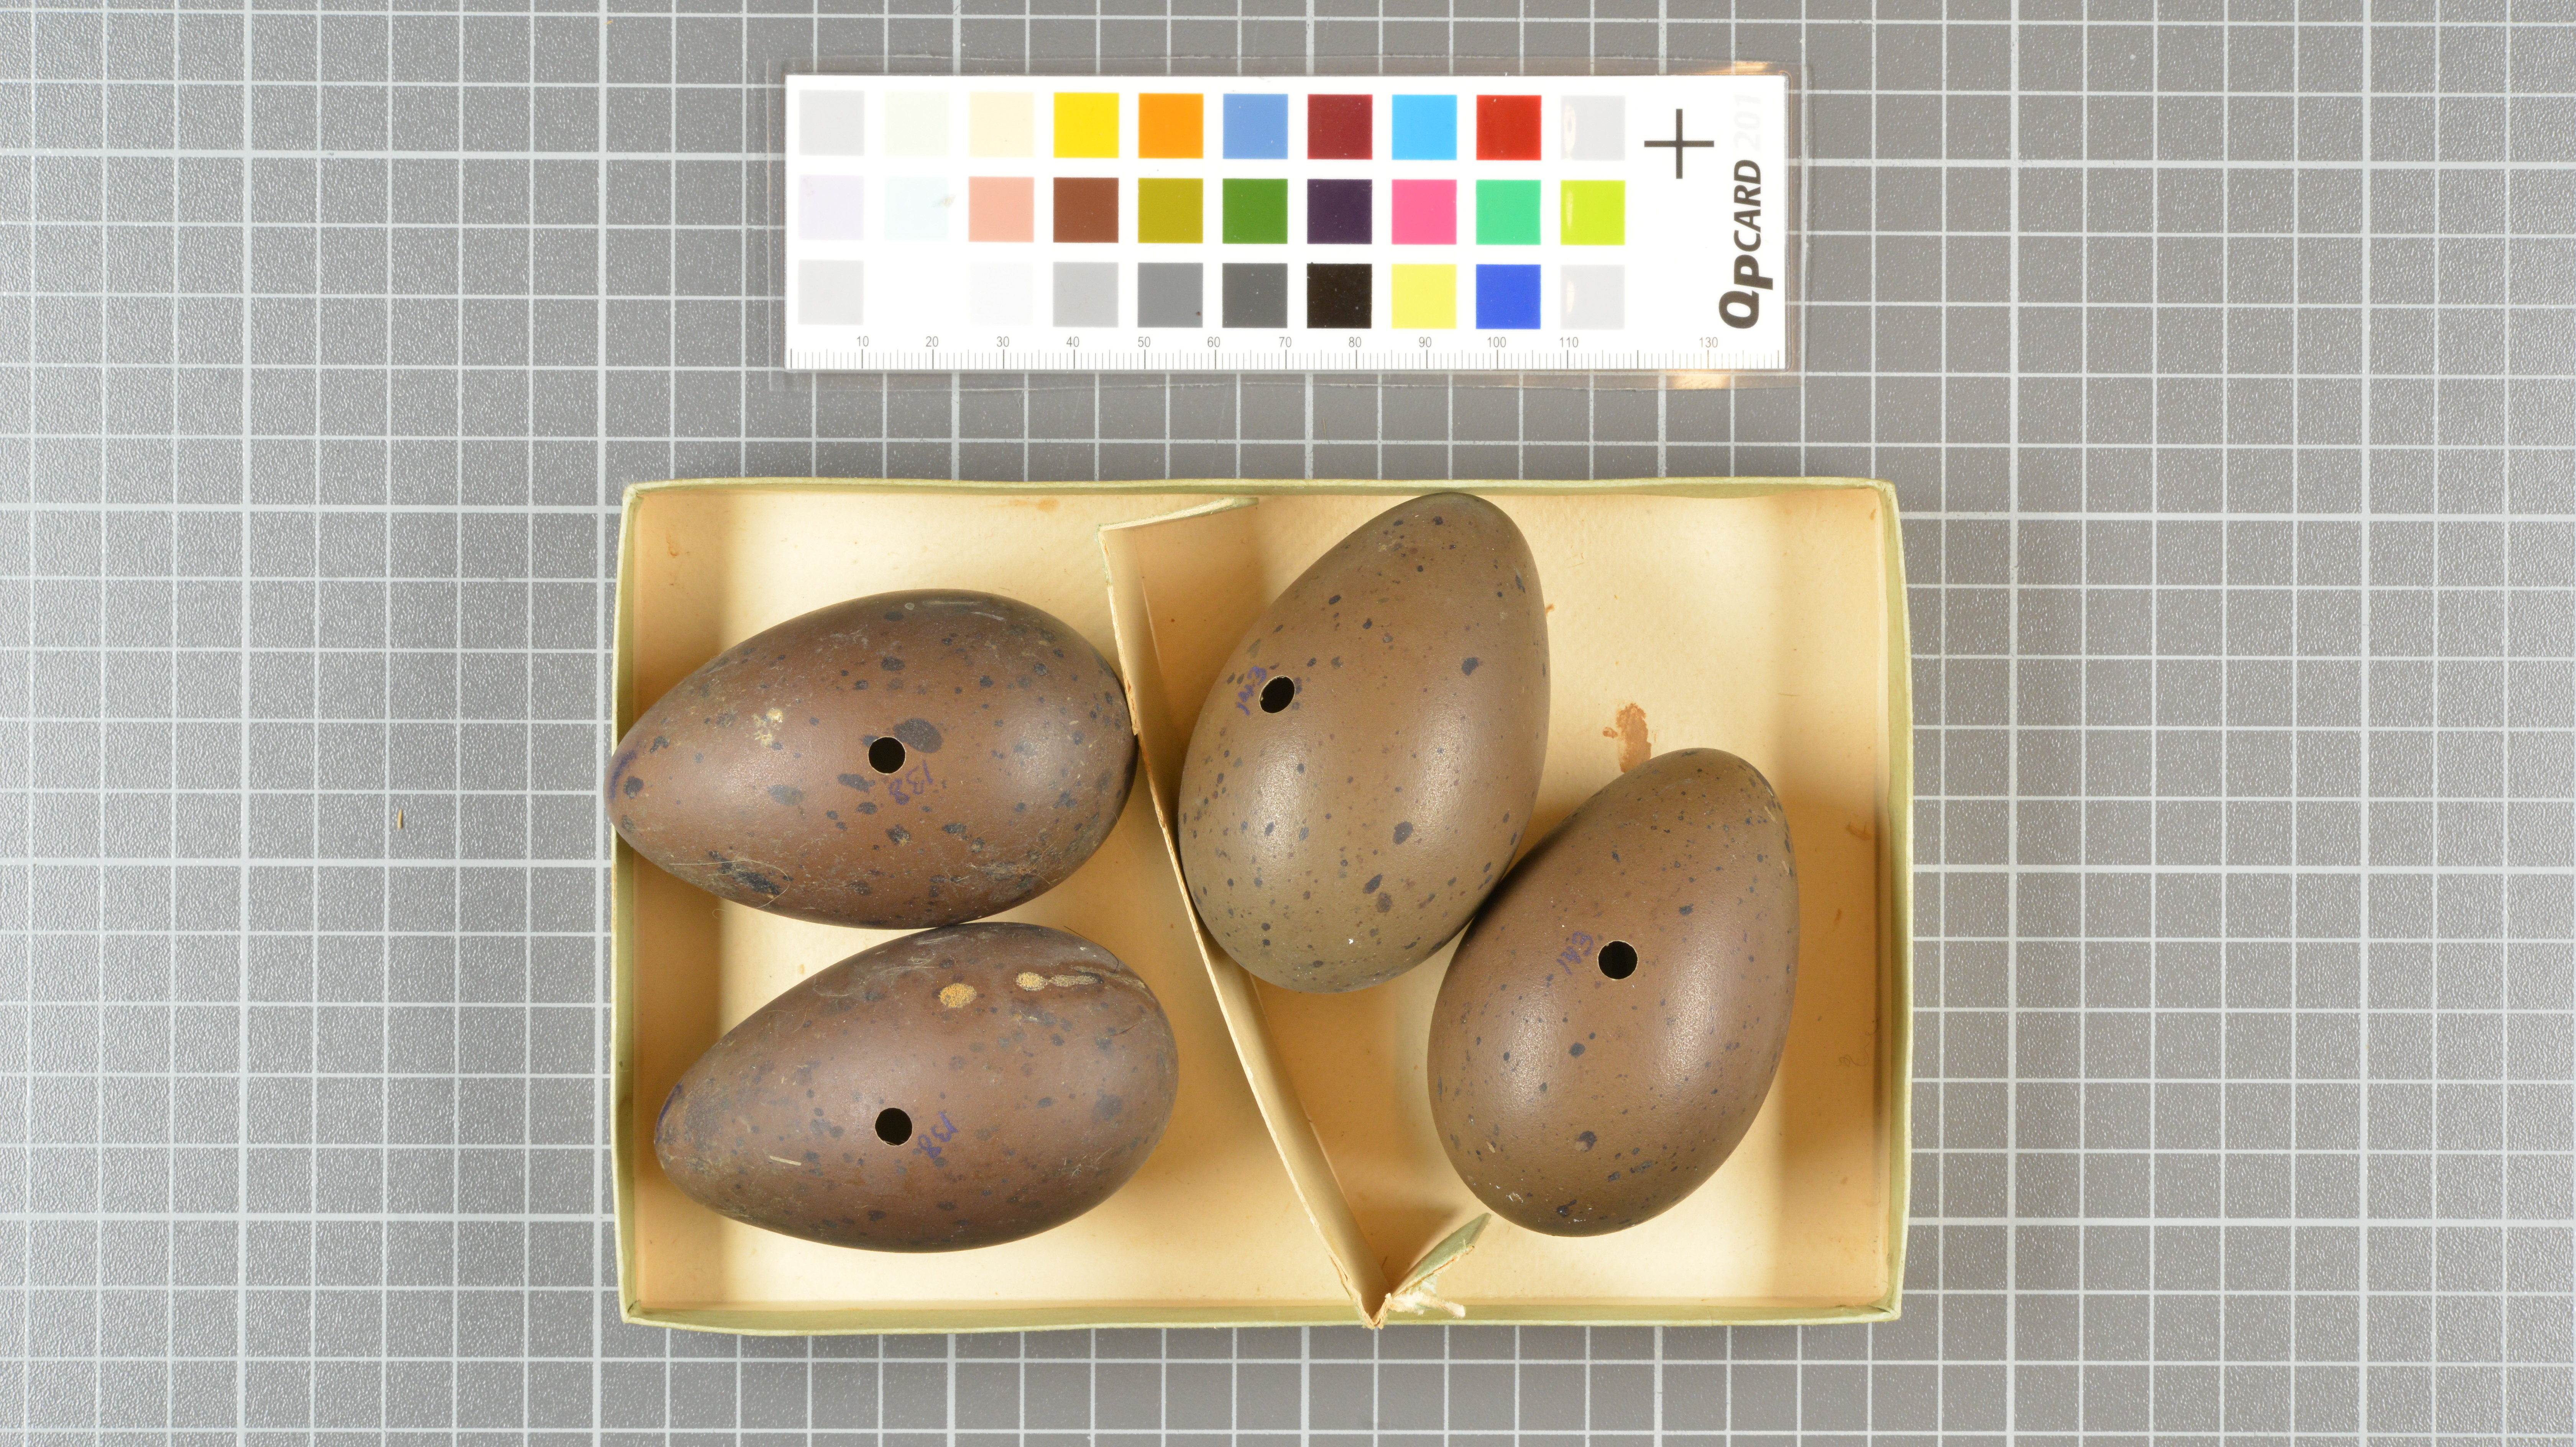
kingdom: Animalia
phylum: Chordata
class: Aves
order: Gaviiformes
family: Gaviidae
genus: Gavia
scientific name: Gavia stellata
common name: Red-throated loon
